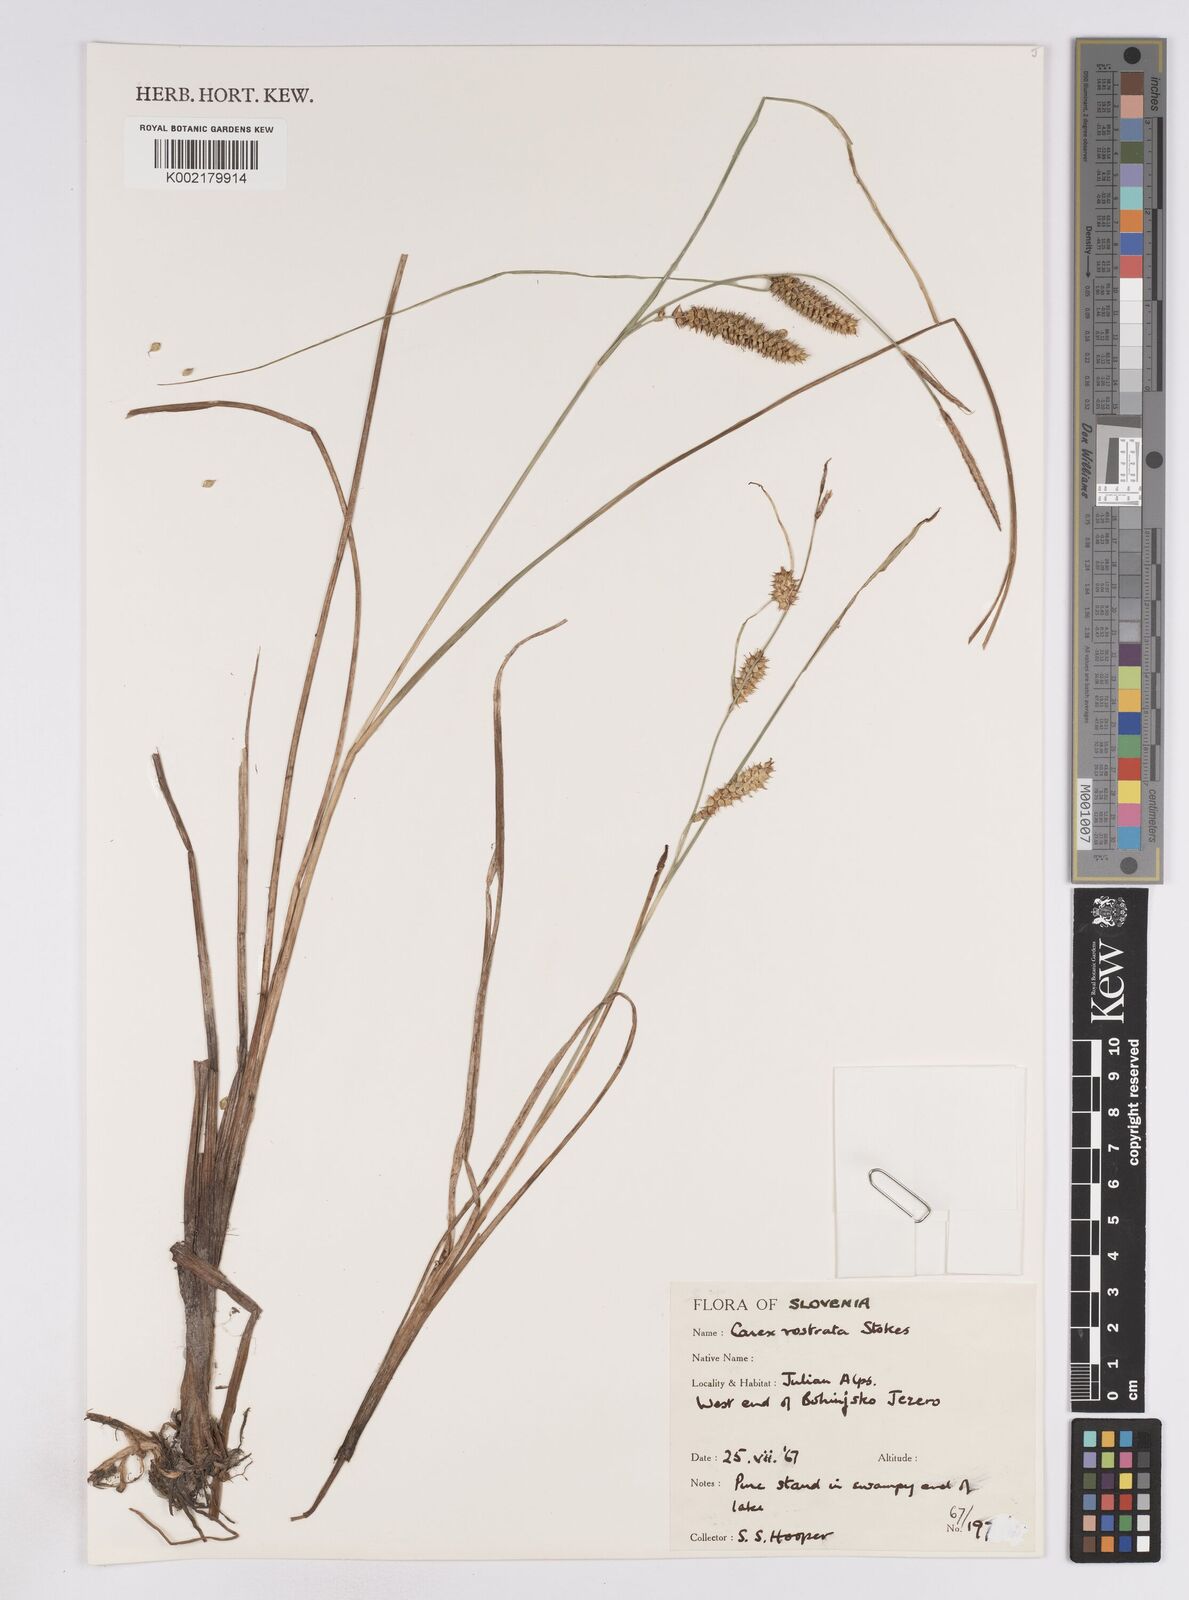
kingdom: Plantae
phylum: Tracheophyta
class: Liliopsida
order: Poales
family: Cyperaceae
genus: Carex
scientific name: Carex rostrata
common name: Bottle sedge
